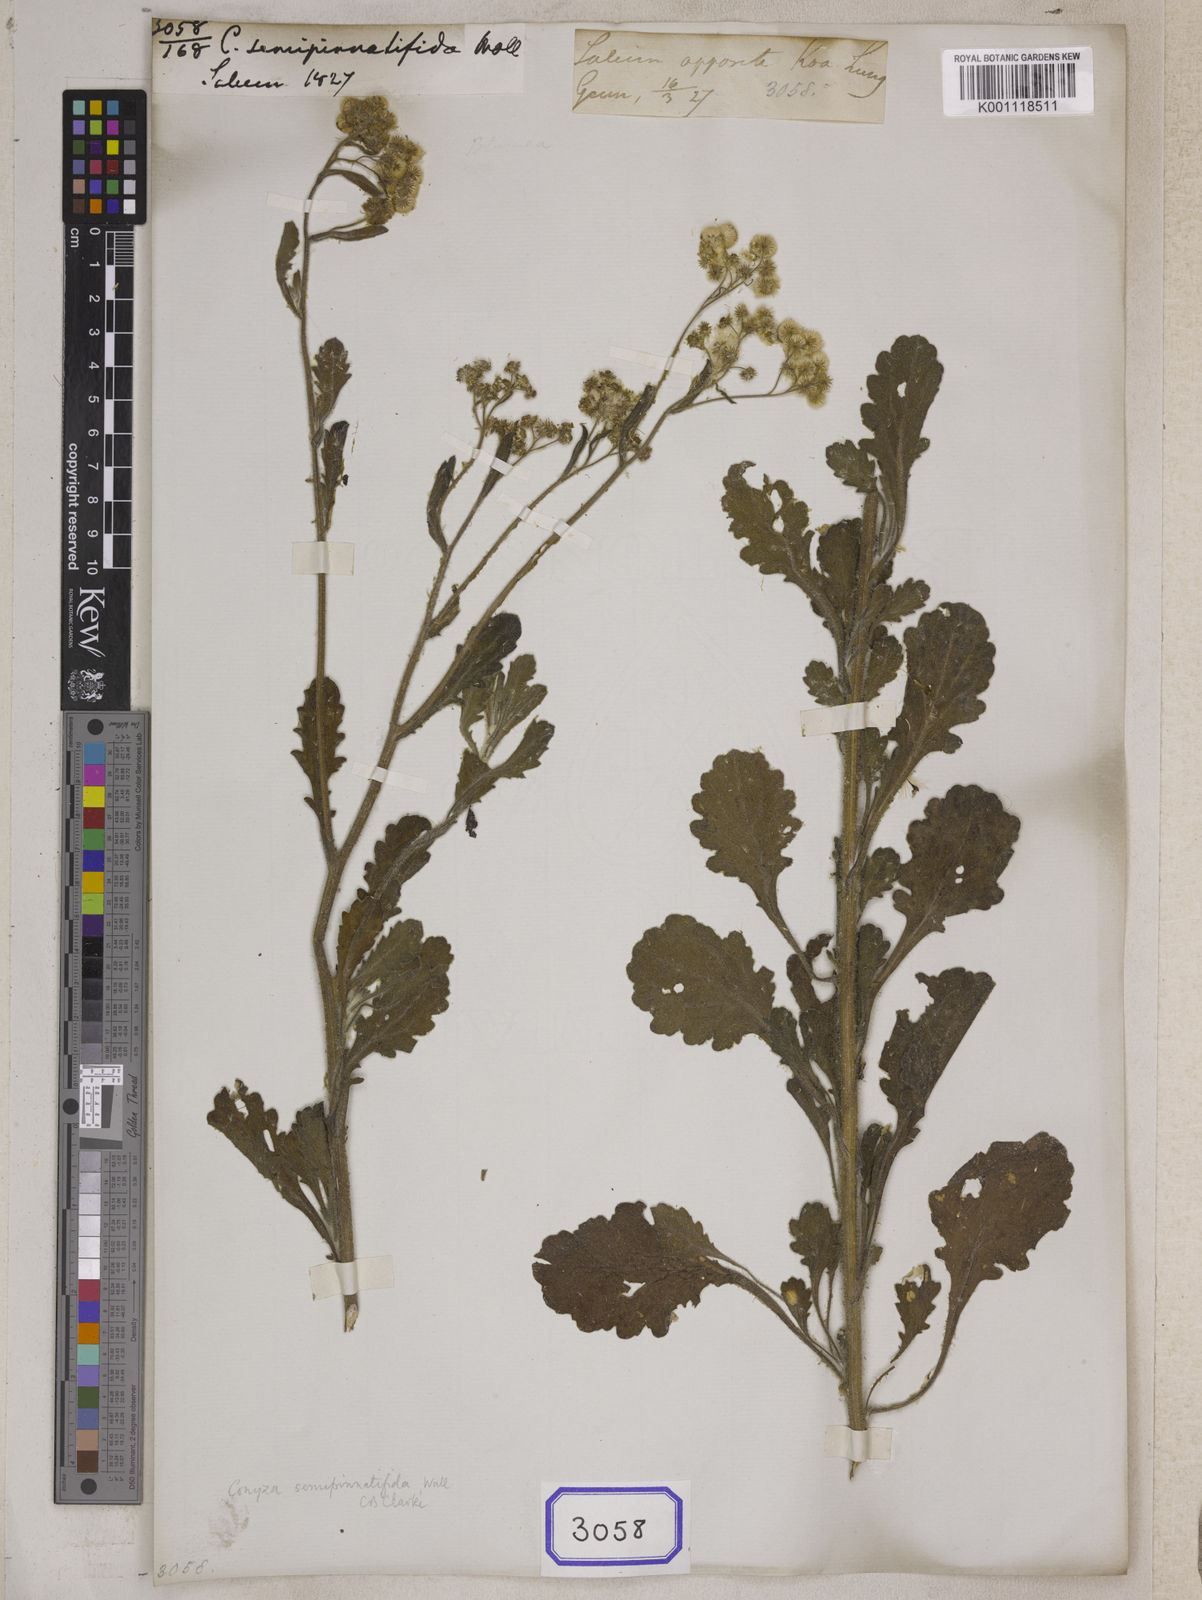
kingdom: Plantae
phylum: Tracheophyta
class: Magnoliopsida
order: Asterales
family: Asteraceae
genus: Conyza
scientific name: Conyza
